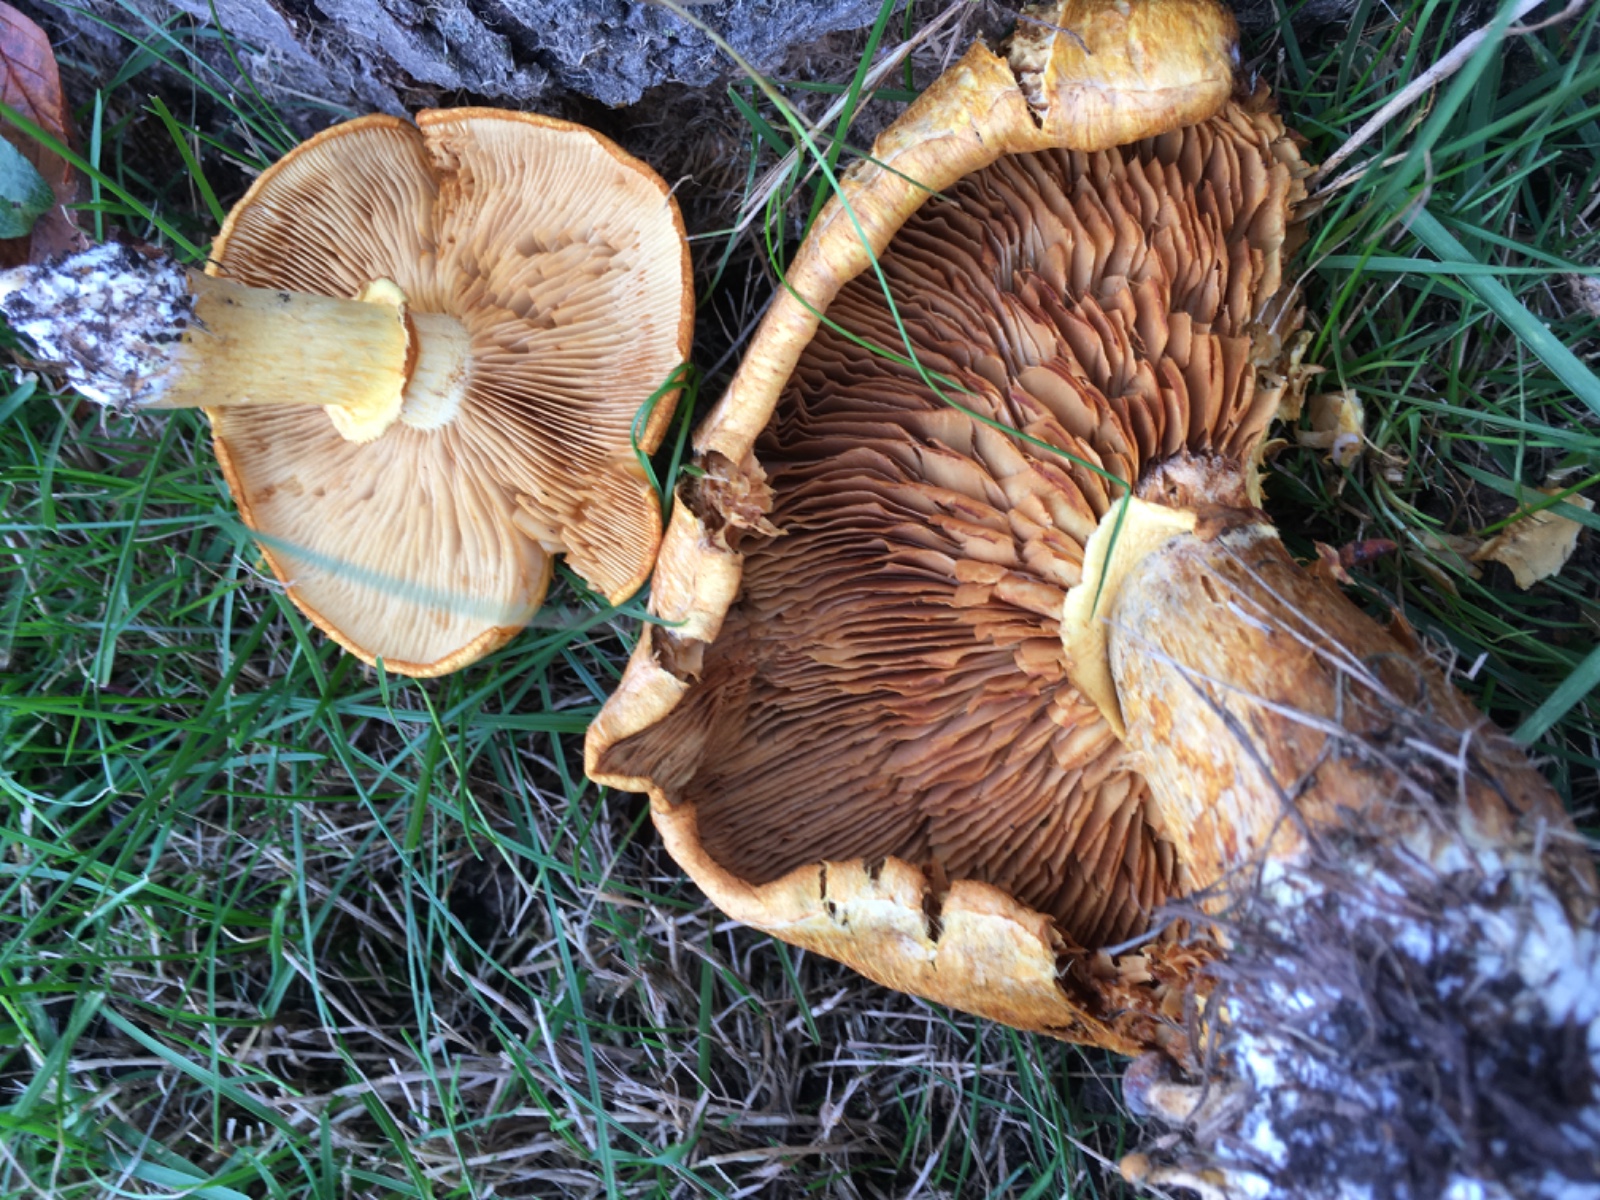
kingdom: Fungi
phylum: Basidiomycota
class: Agaricomycetes
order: Agaricales
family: Hymenogastraceae
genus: Gymnopilus
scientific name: Gymnopilus spectabilis
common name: fibret flammehat
